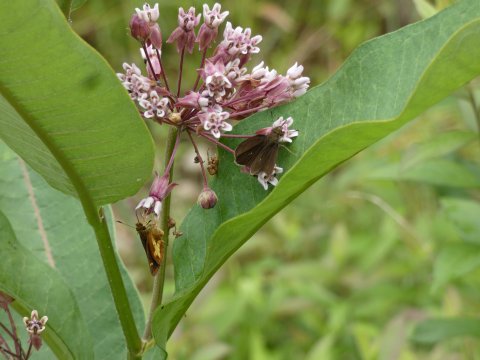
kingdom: Animalia
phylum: Arthropoda
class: Insecta
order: Lepidoptera
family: Hesperiidae
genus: Euphyes
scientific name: Euphyes vestris
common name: Dun Skipper
